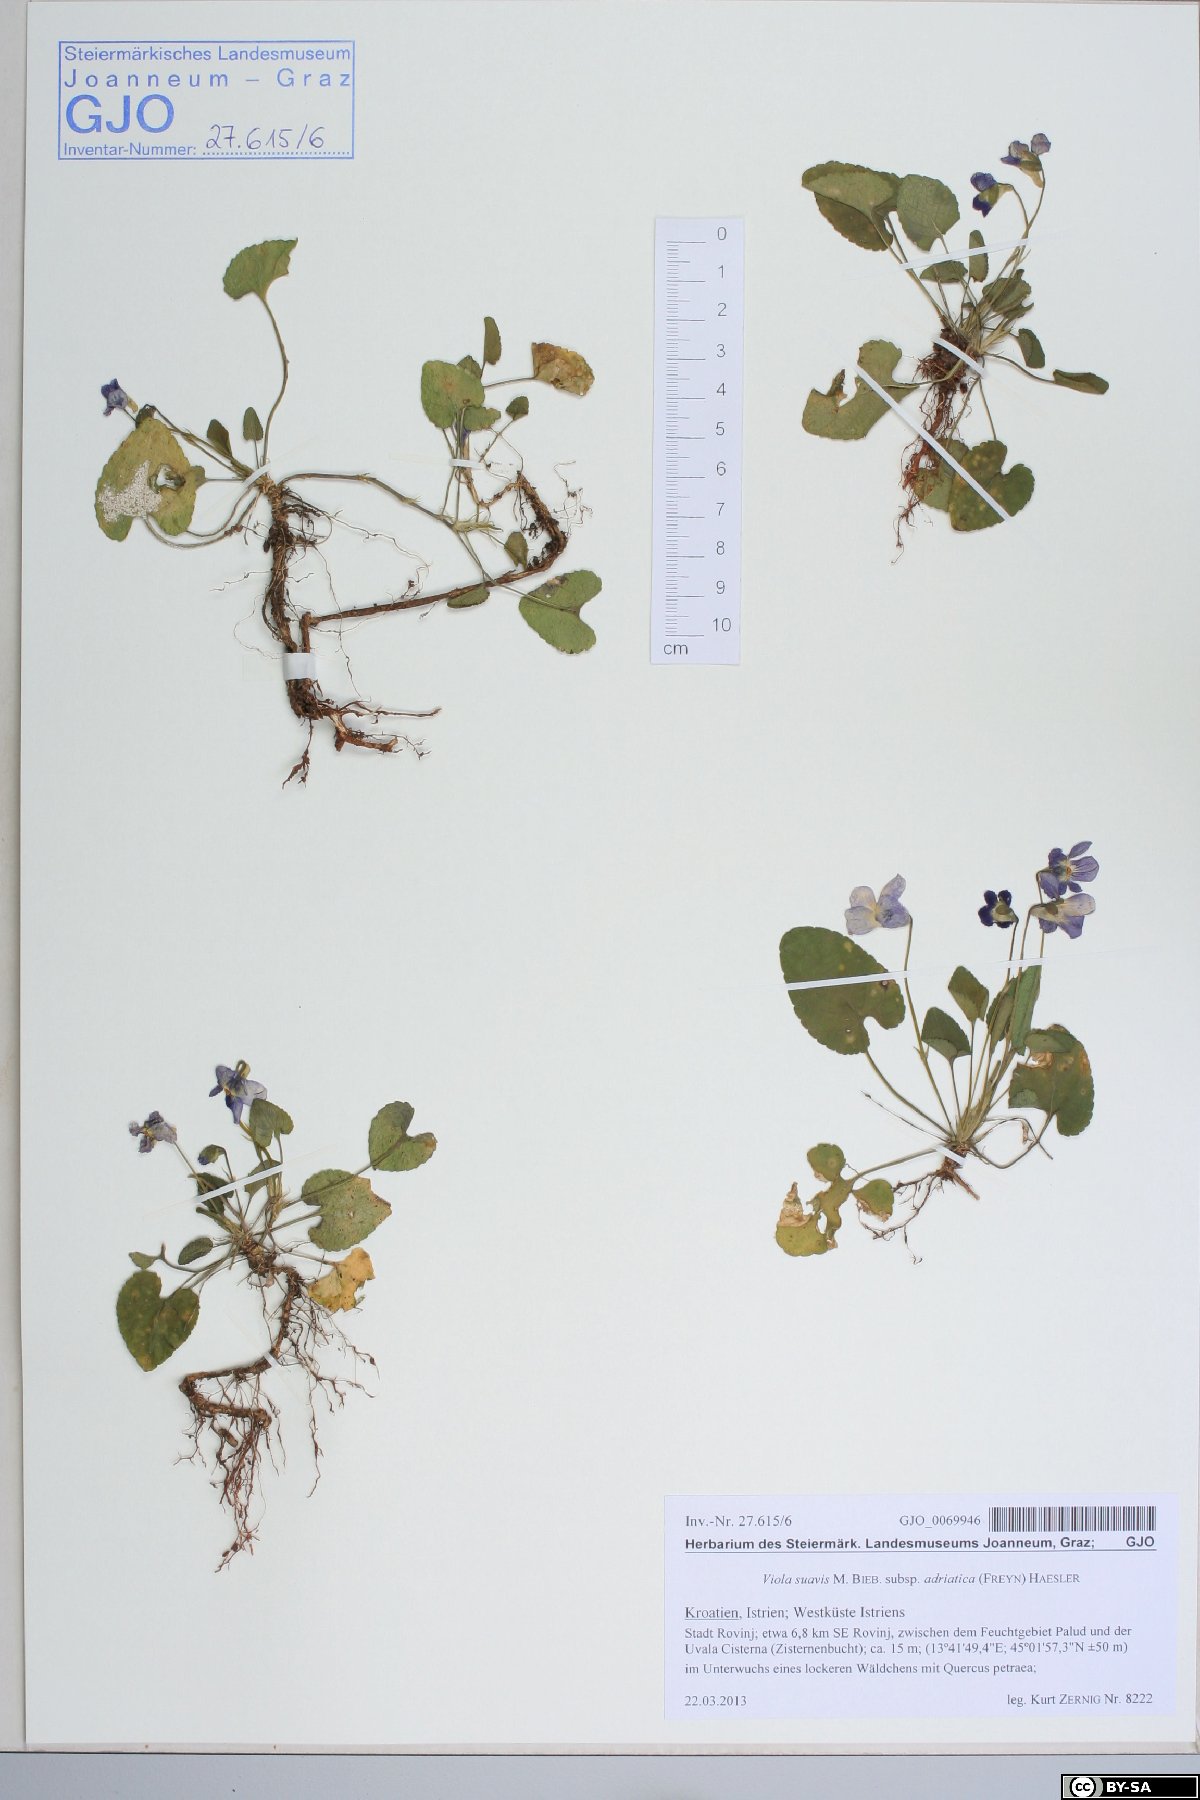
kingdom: Plantae
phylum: Tracheophyta
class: Magnoliopsida
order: Malpighiales
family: Violaceae
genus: Viola
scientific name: Viola suavis
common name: Russian violet
